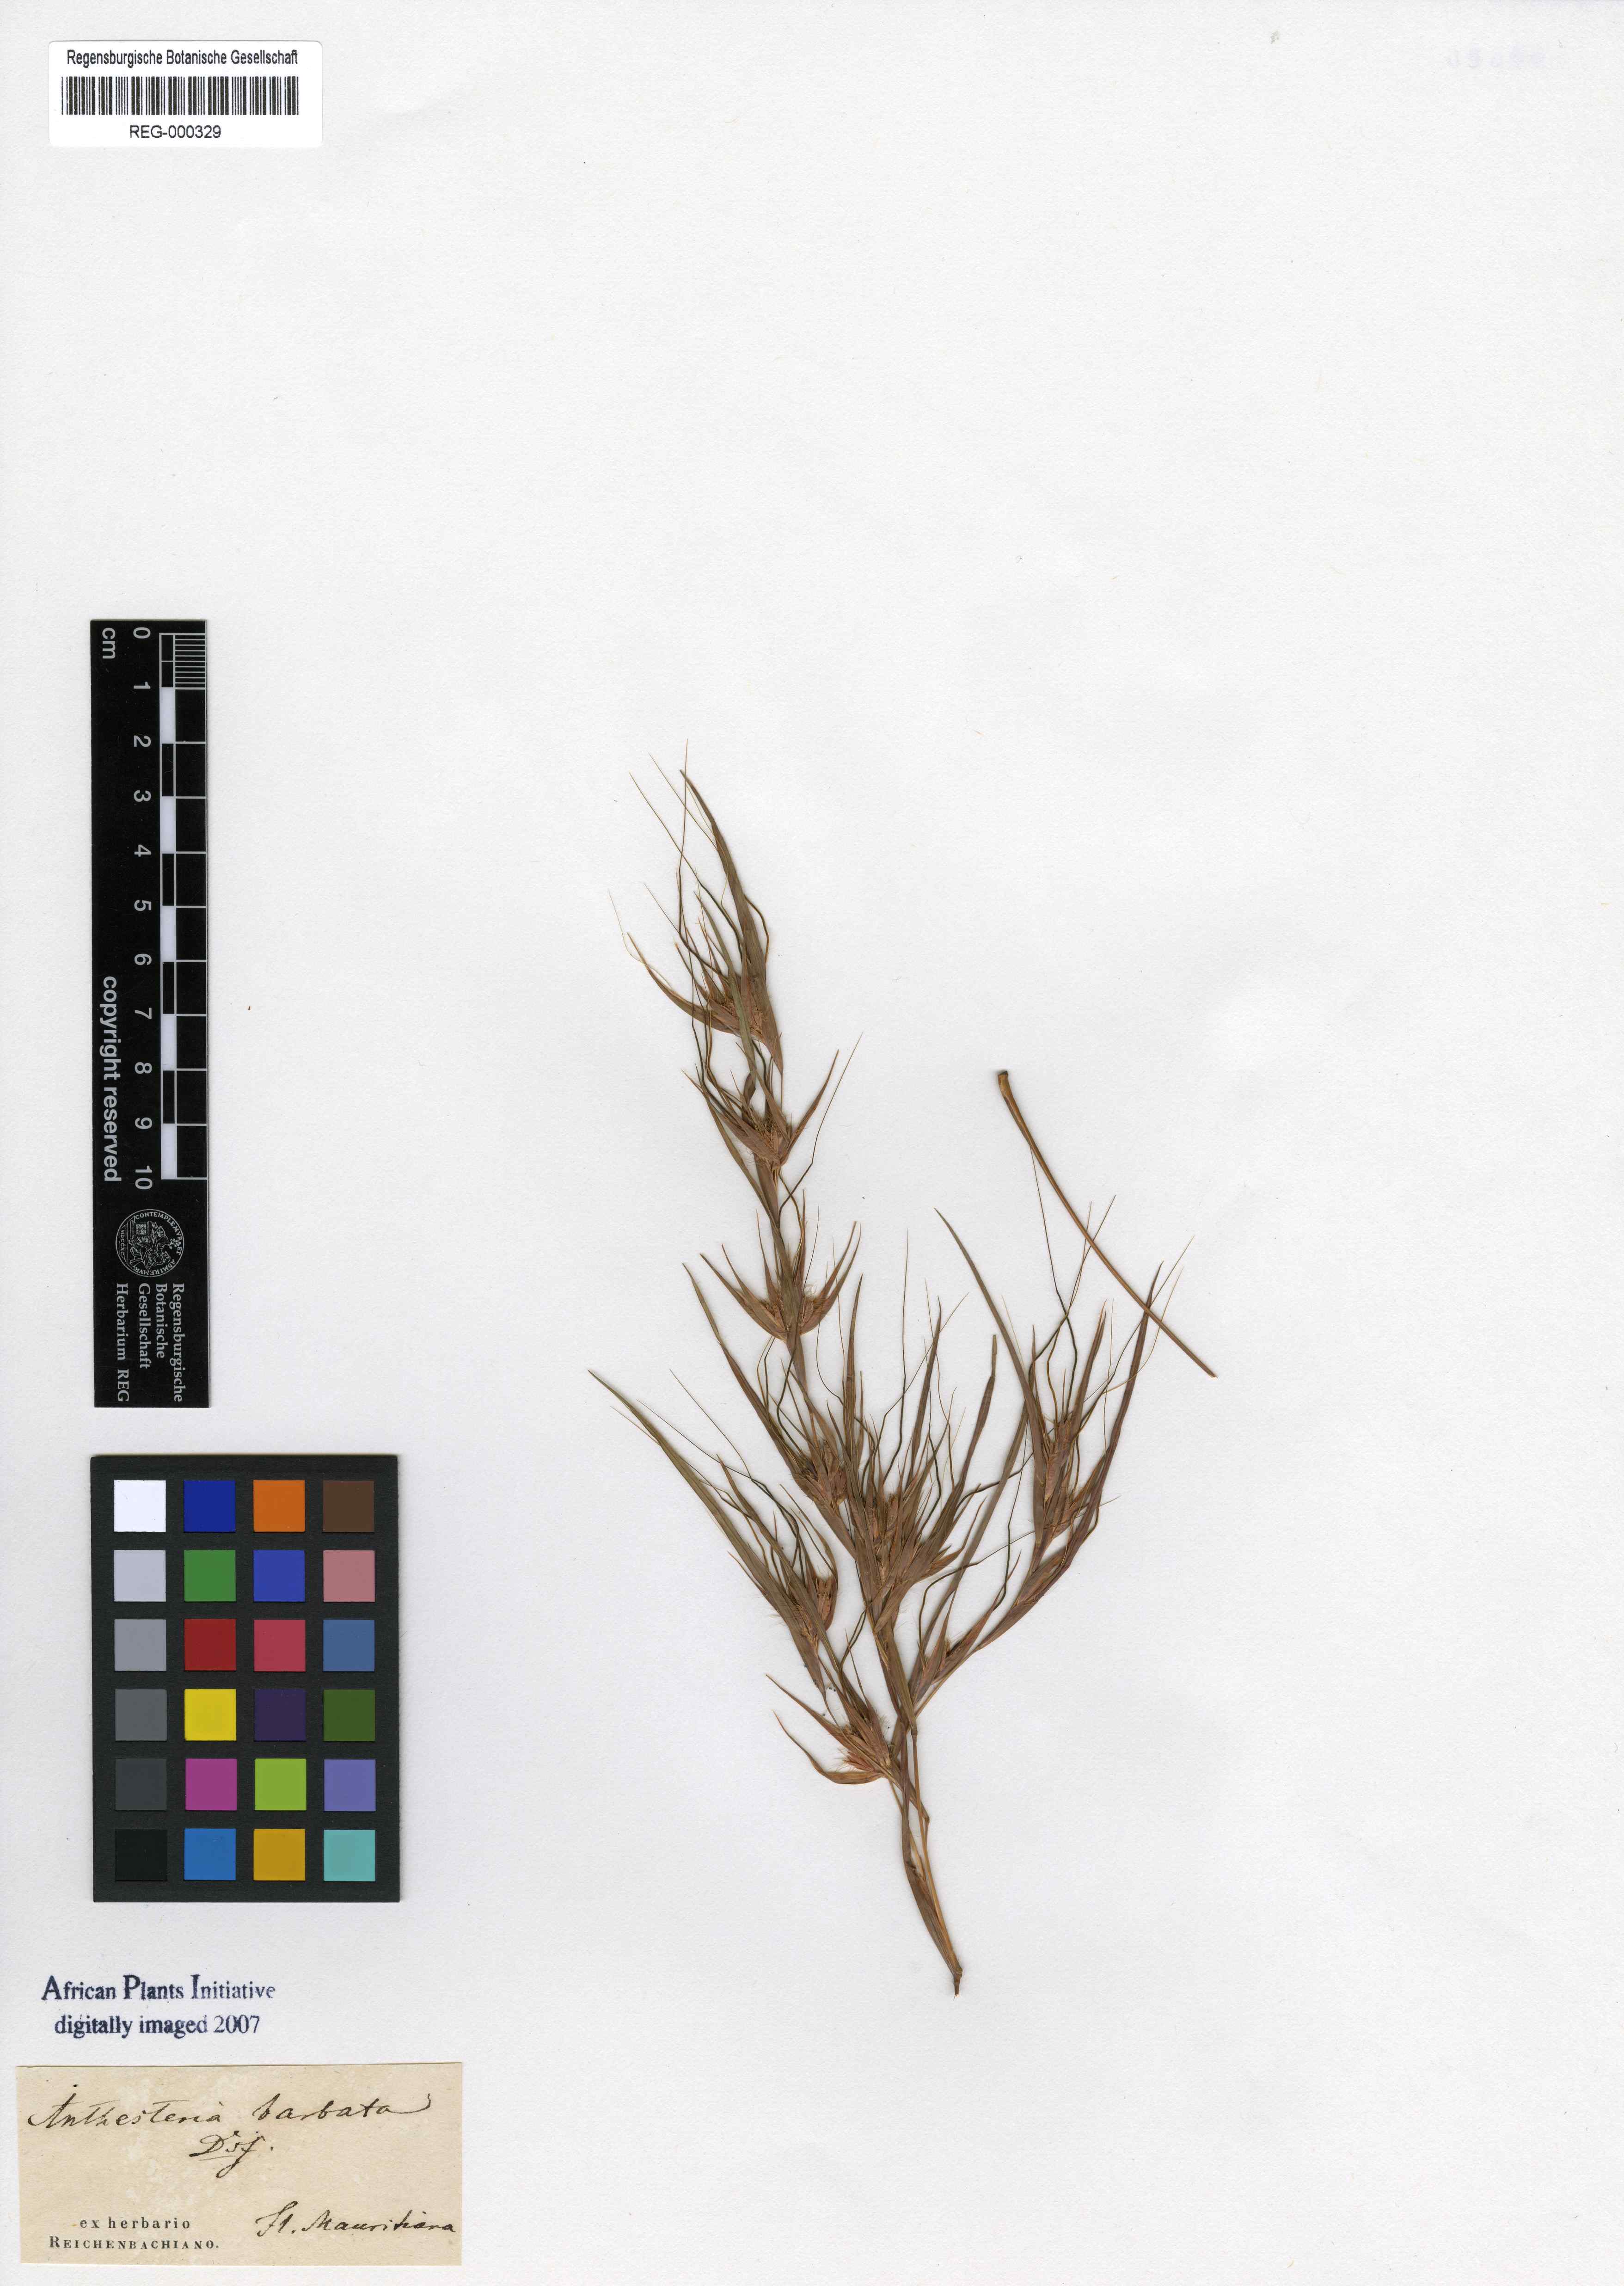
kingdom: Plantae
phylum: Tracheophyta
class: Liliopsida
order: Poales
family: Poaceae
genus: Themeda
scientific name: Themeda triandra
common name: Kangaroo grass
